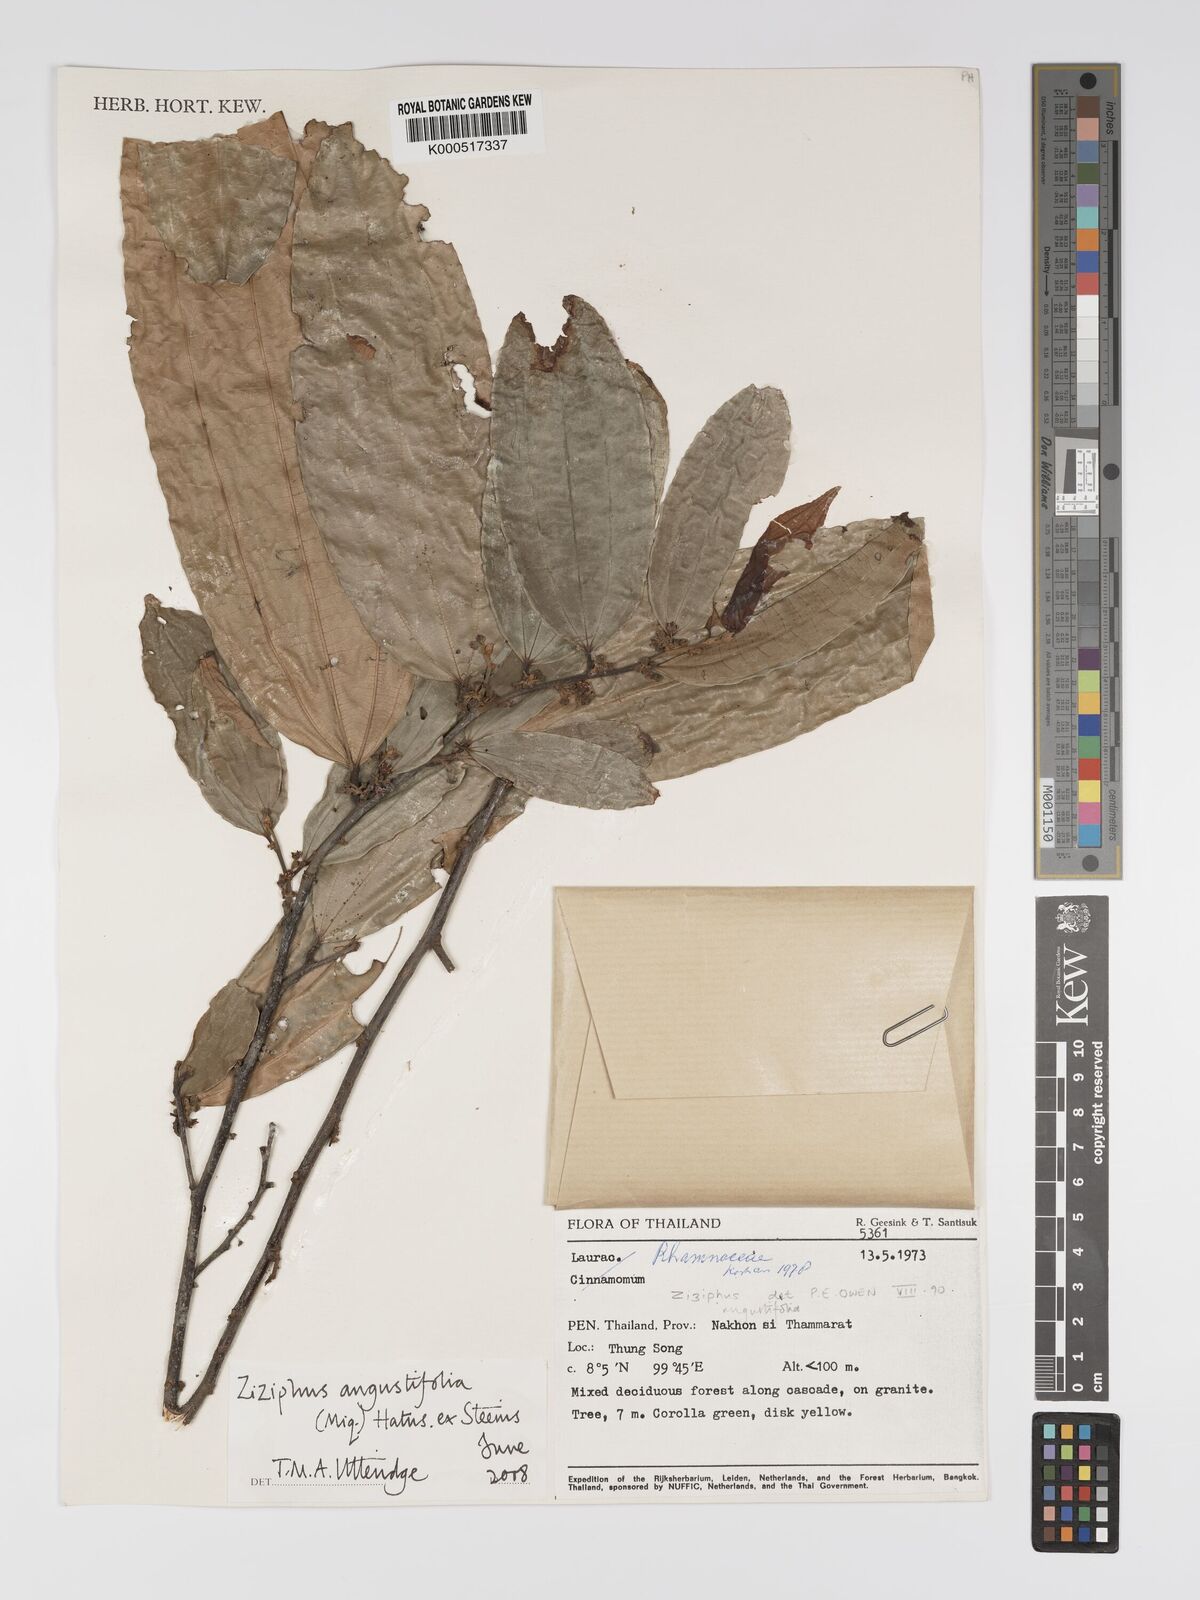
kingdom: Plantae
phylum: Tracheophyta
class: Magnoliopsida
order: Rosales
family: Rhamnaceae
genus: Ziziphus
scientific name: Ziziphus angustifolia
